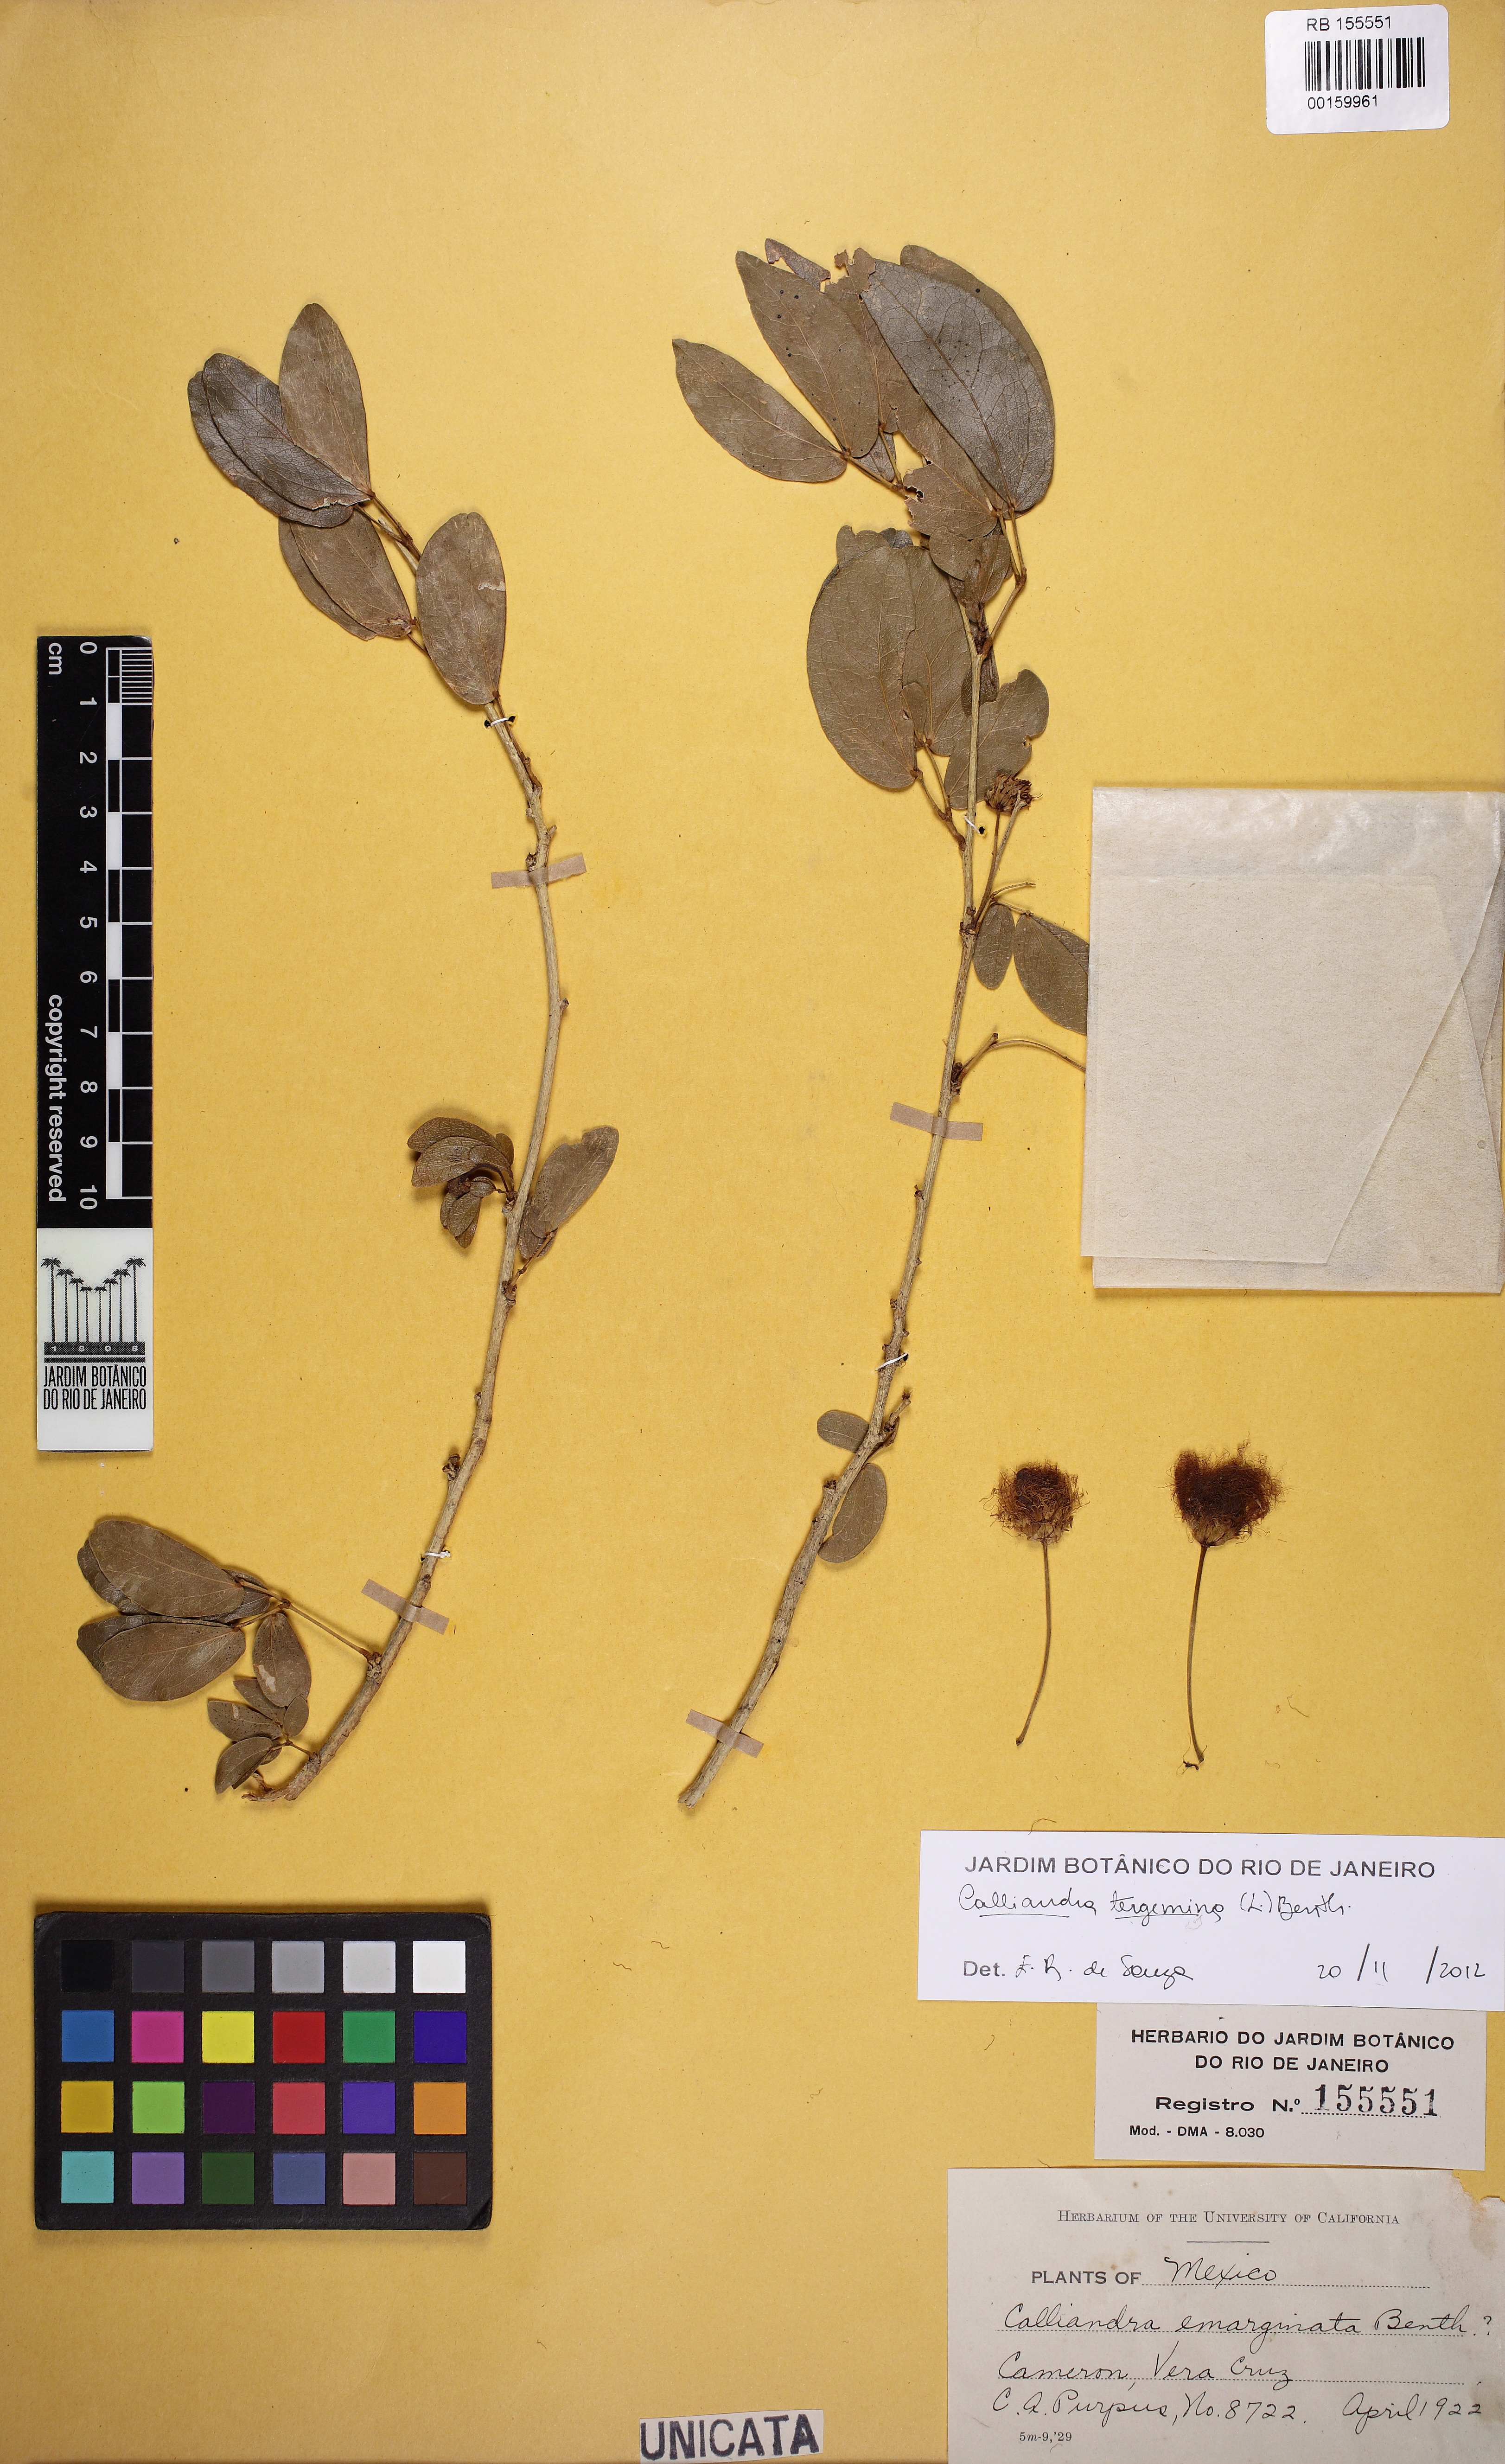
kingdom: Plantae
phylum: Tracheophyta
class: Magnoliopsida
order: Fabales
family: Fabaceae
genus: Calliandra
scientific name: Calliandra tergemina
